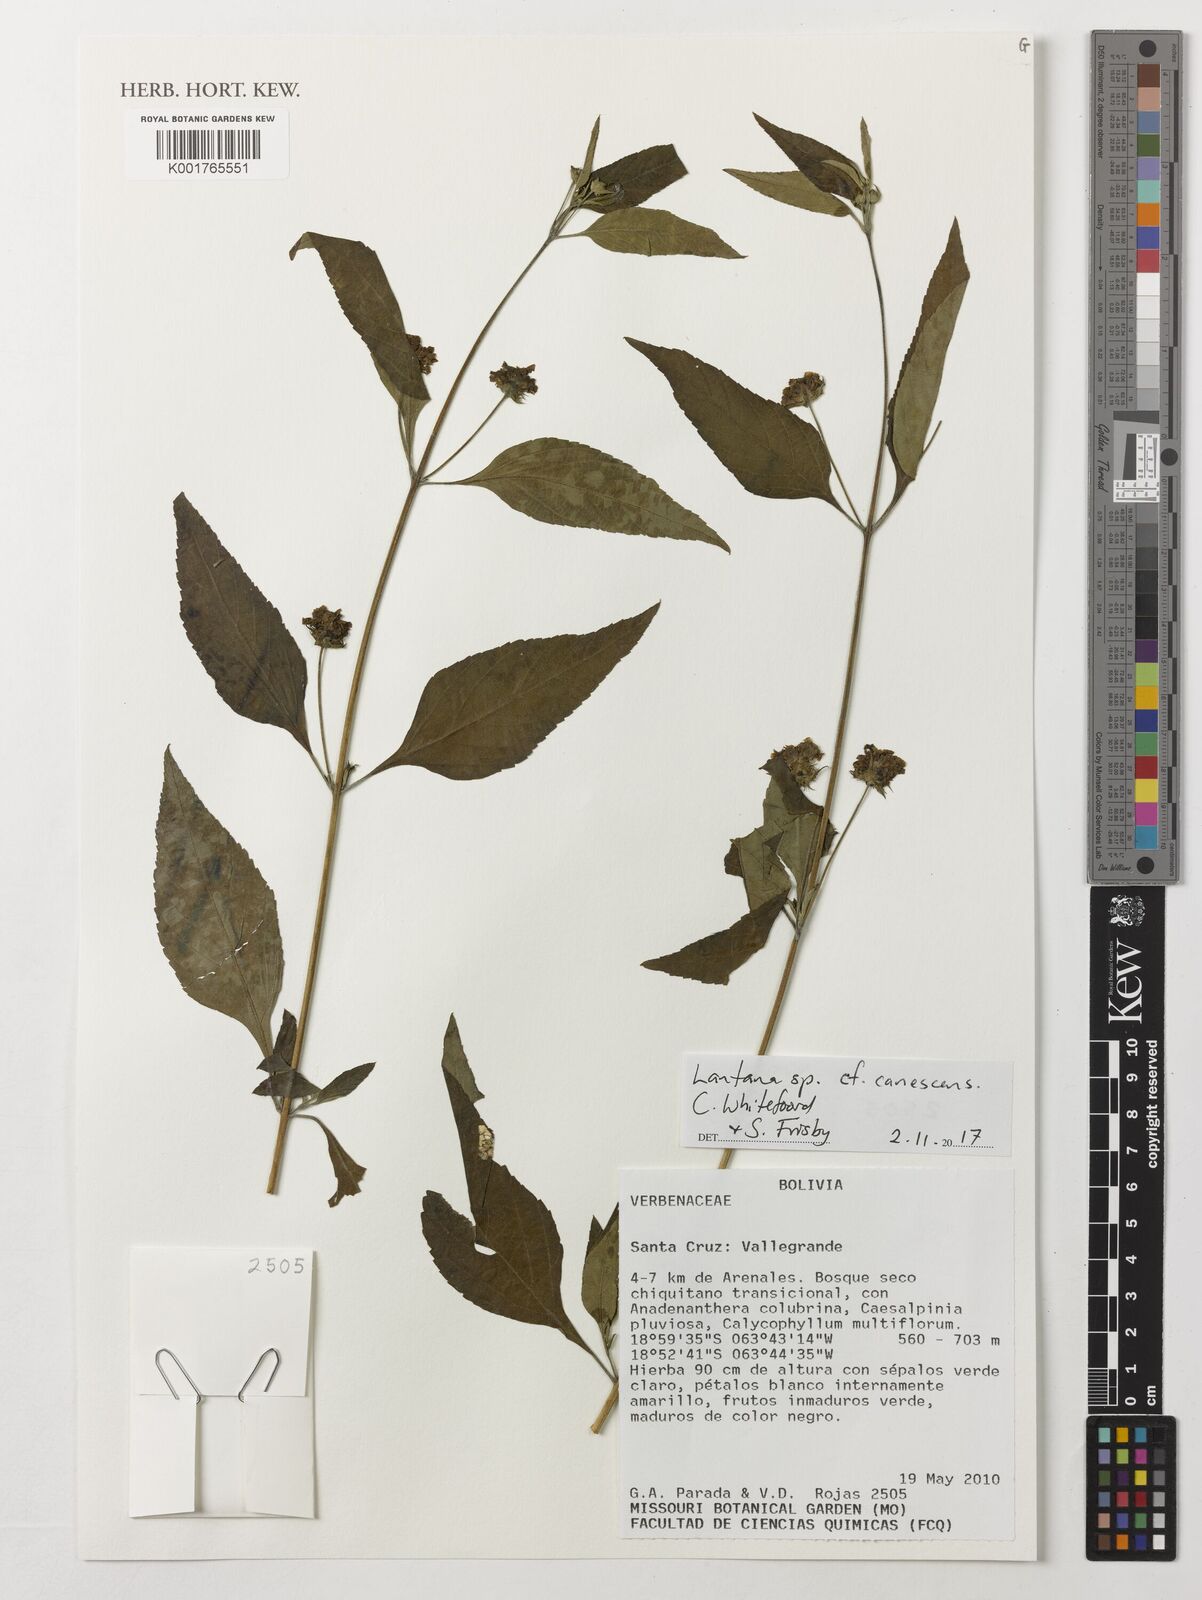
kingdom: Plantae
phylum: Tracheophyta
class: Magnoliopsida
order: Lamiales
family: Verbenaceae
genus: Lantana
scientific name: Lantana canescens
